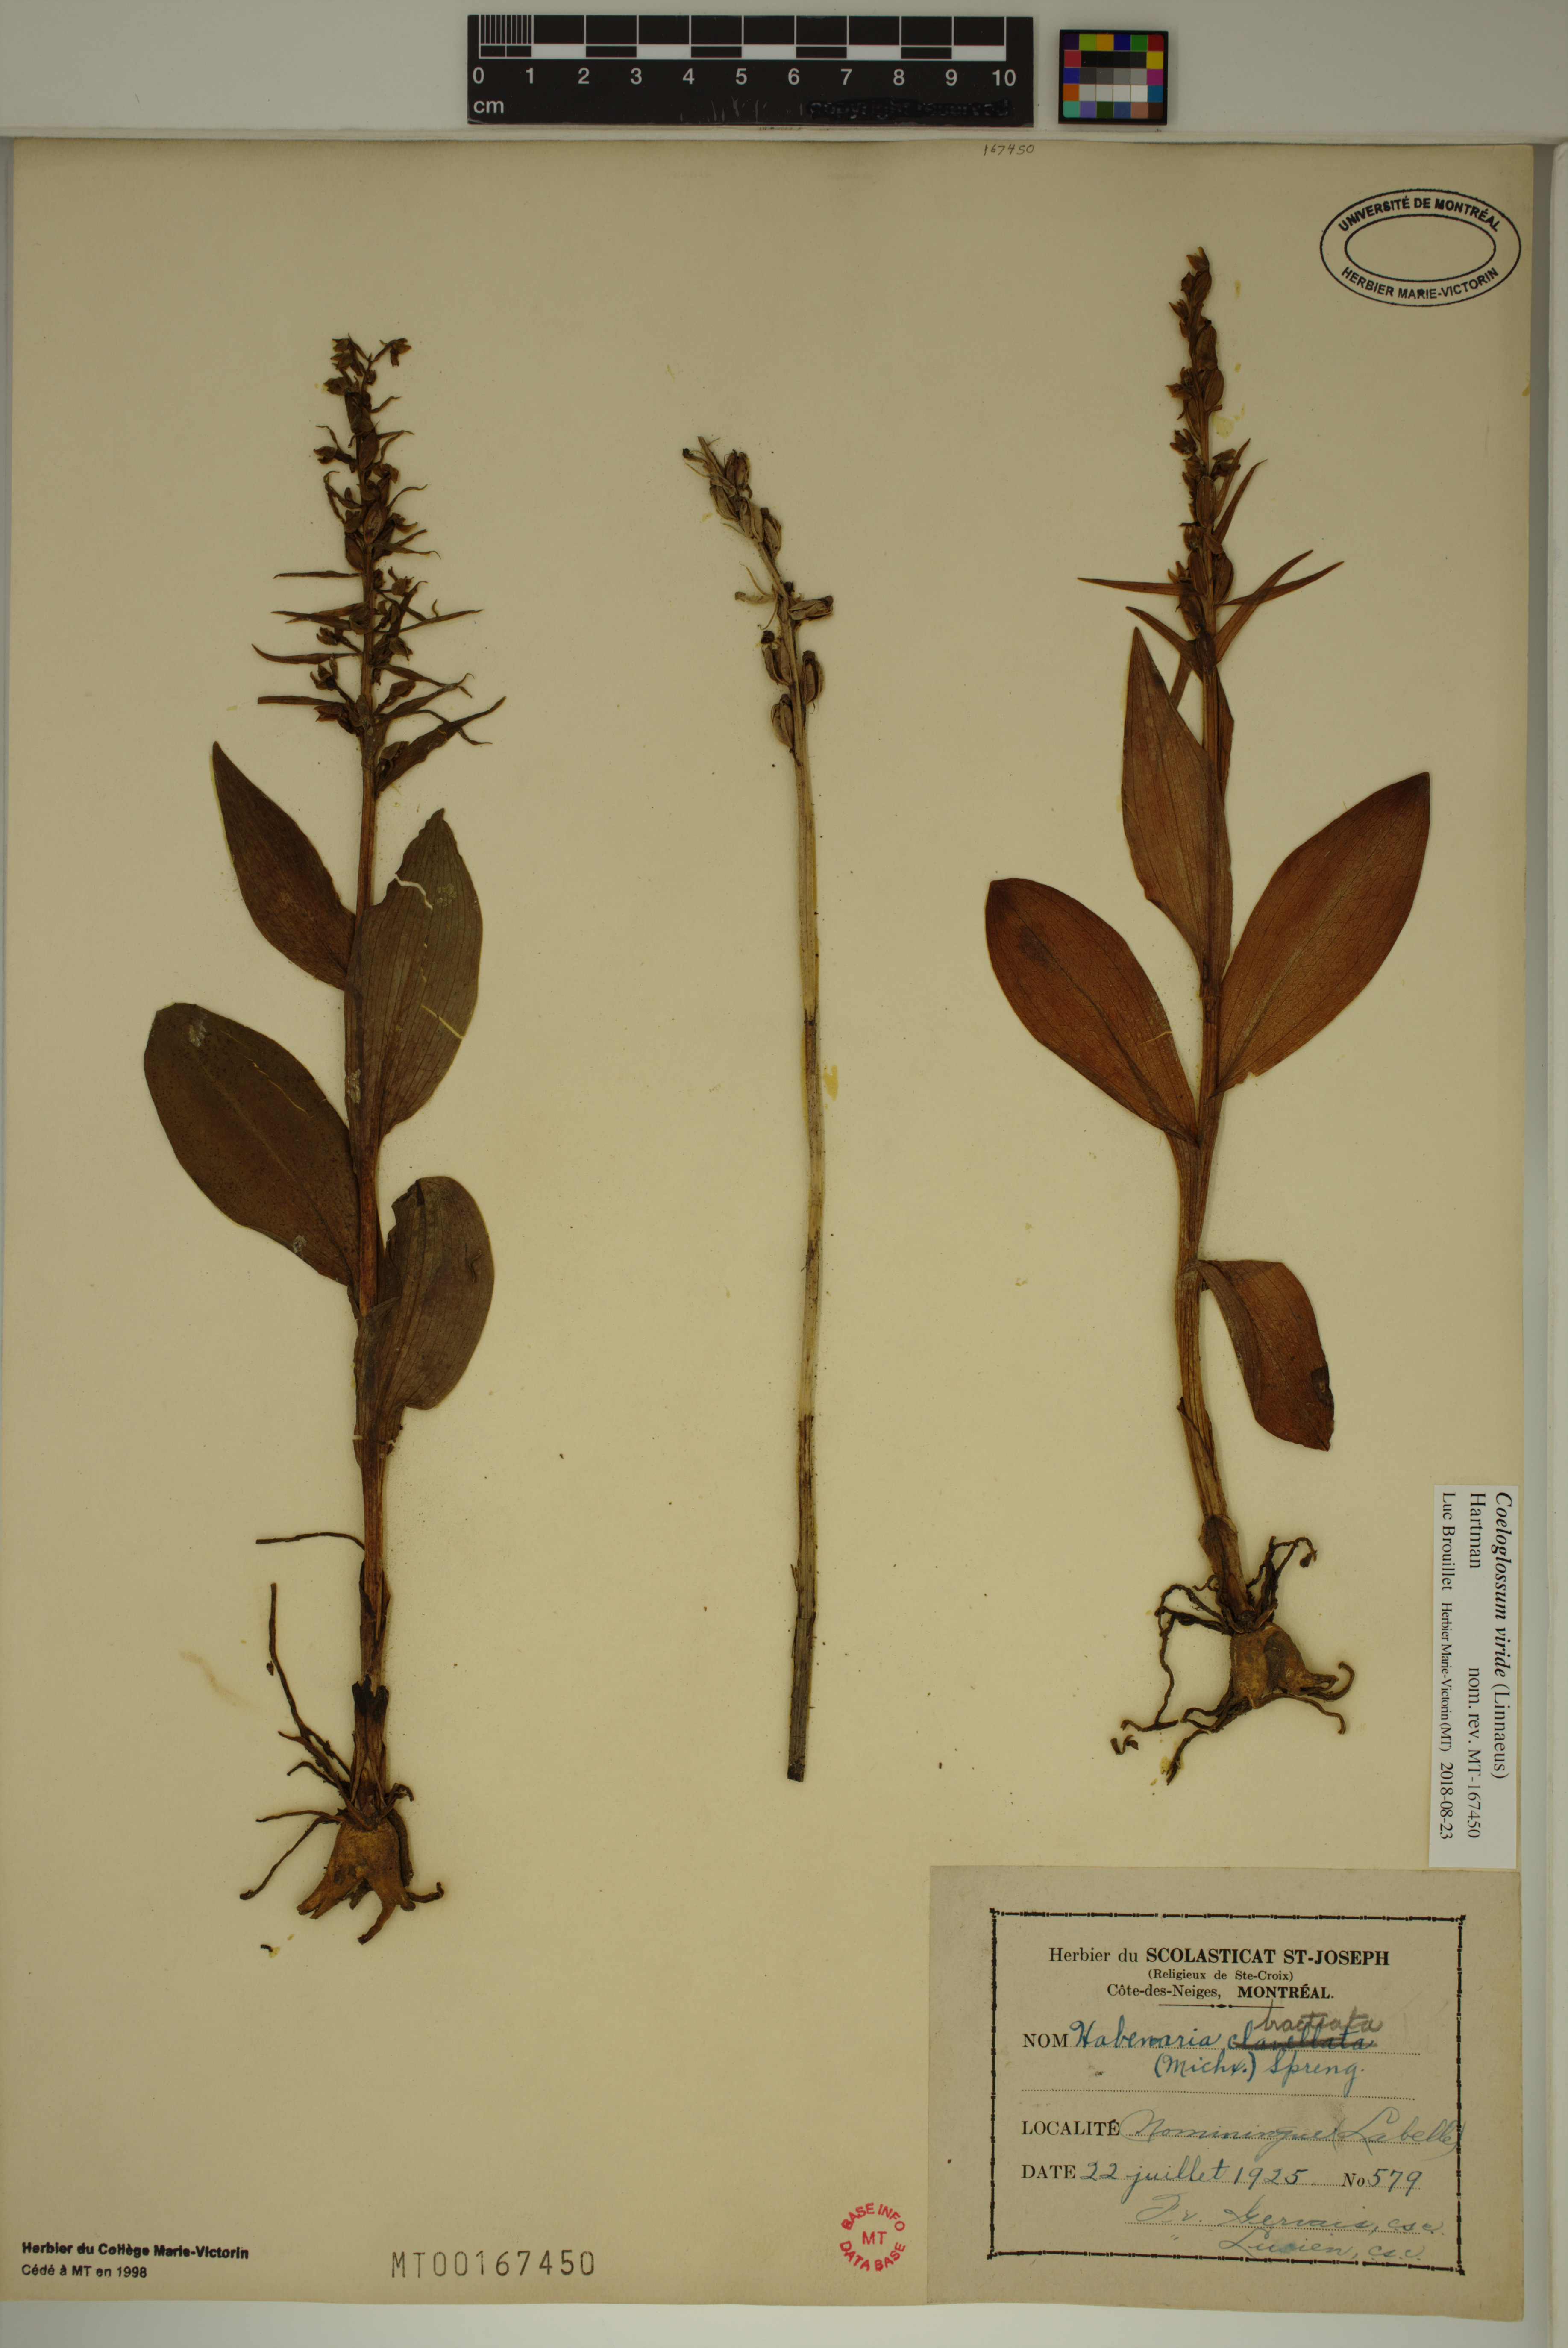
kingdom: Plantae
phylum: Tracheophyta
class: Liliopsida
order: Asparagales
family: Orchidaceae
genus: Dactylorhiza
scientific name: Dactylorhiza viridis
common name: Longbract frog orchid
